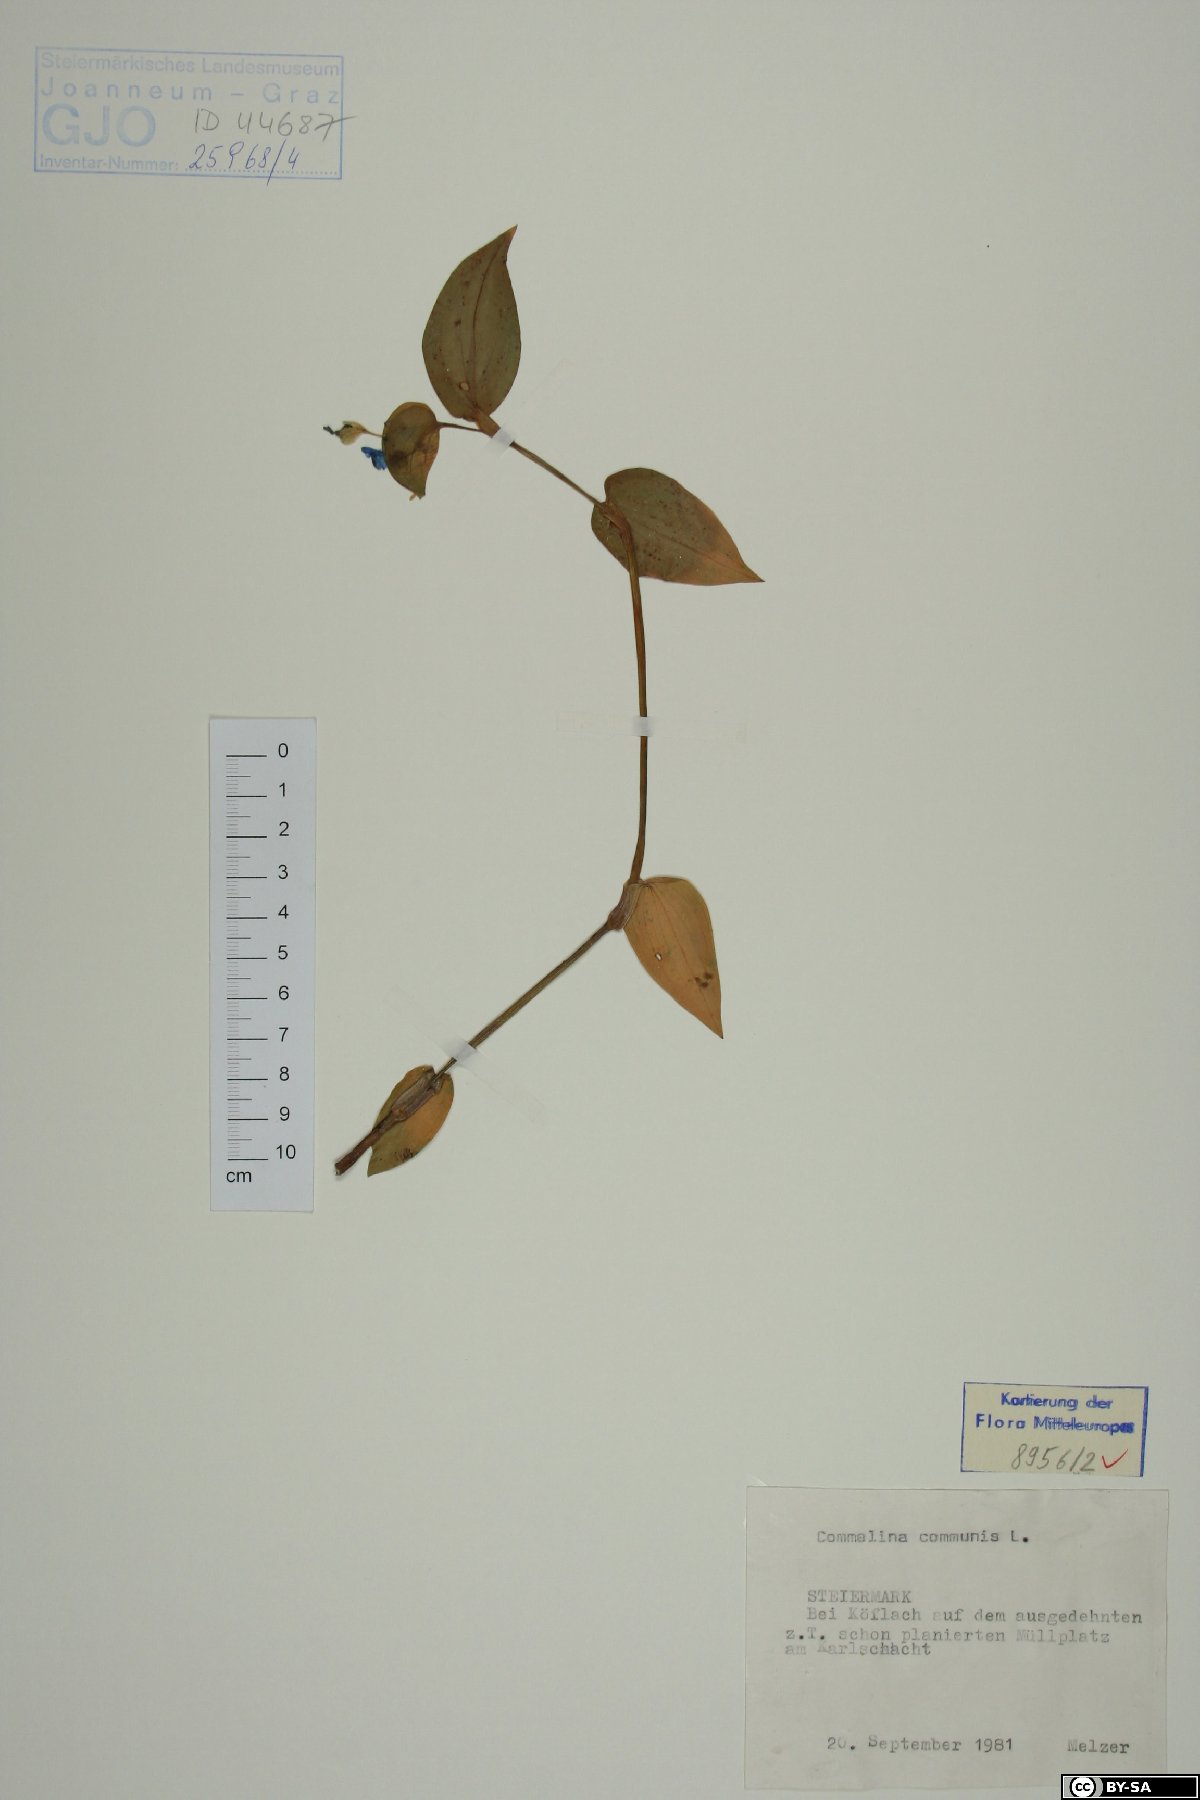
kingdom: Plantae
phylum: Tracheophyta
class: Liliopsida
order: Commelinales
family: Commelinaceae
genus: Commelina
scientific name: Commelina communis
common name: Asiatic dayflower
